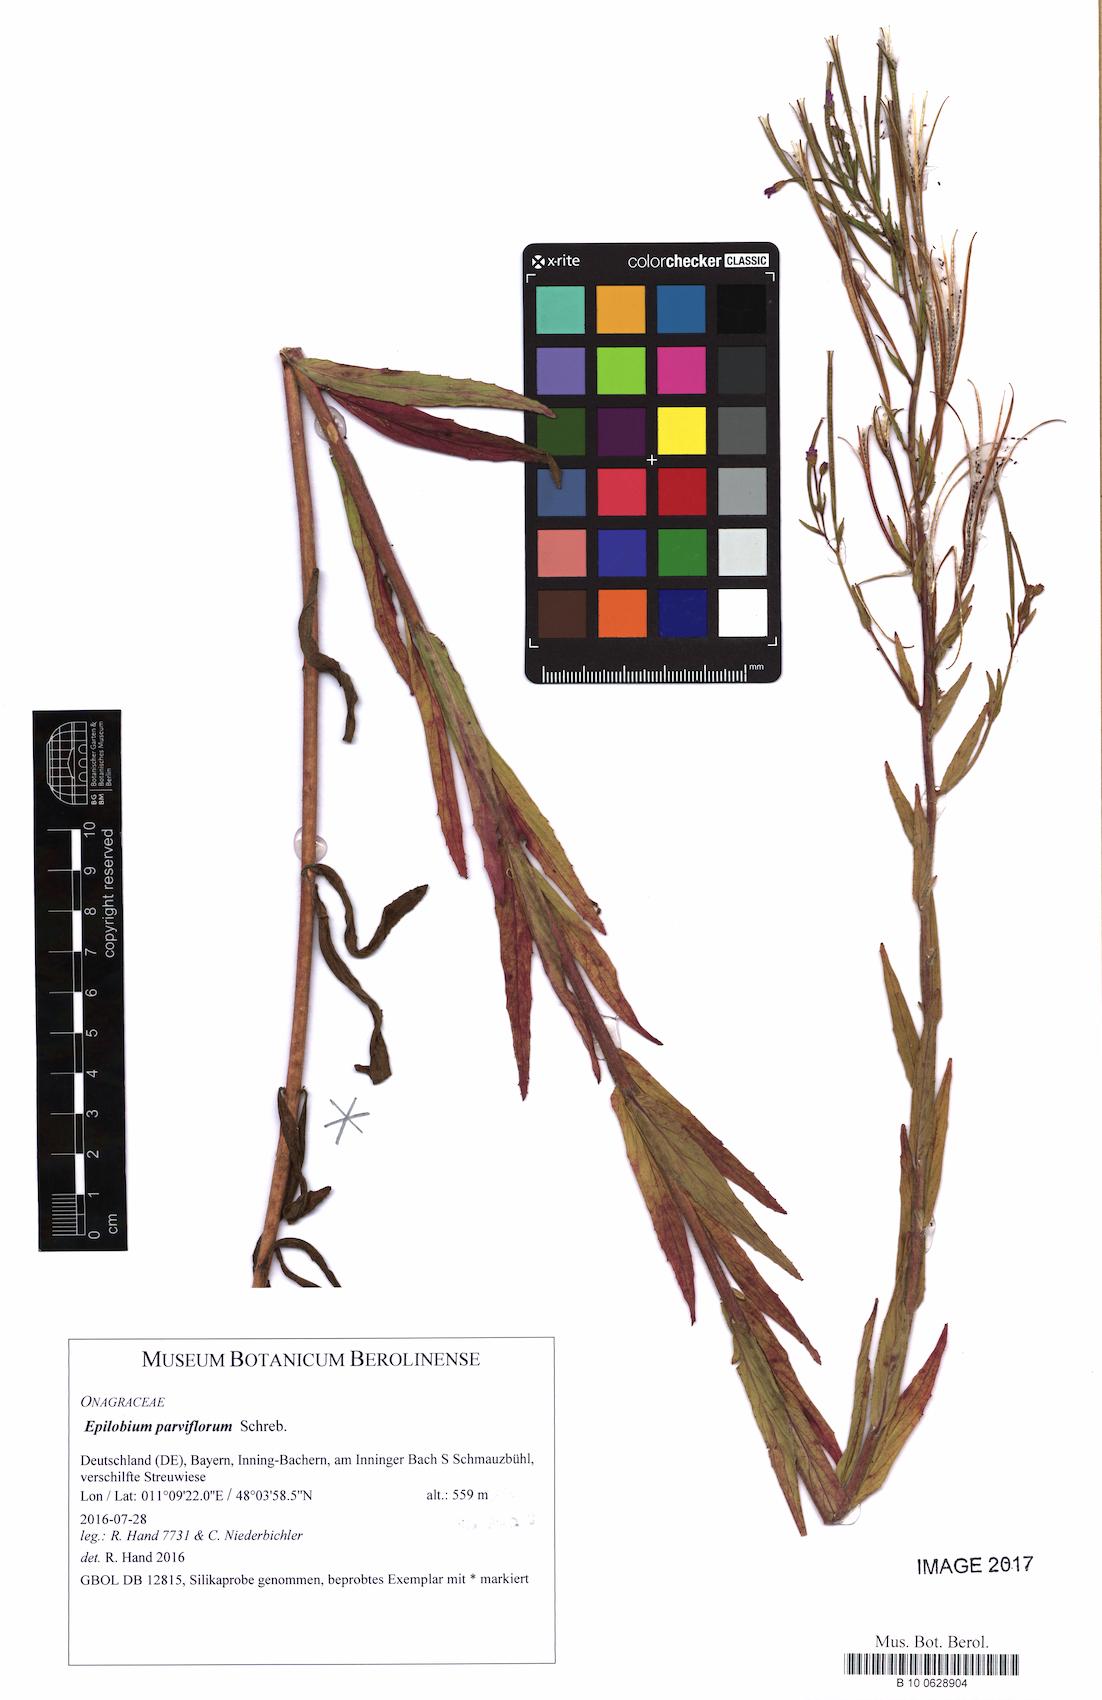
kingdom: Plantae
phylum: Tracheophyta
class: Magnoliopsida
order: Myrtales
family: Onagraceae
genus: Epilobium
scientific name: Epilobium parviflorum
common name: Hoary willowherb
